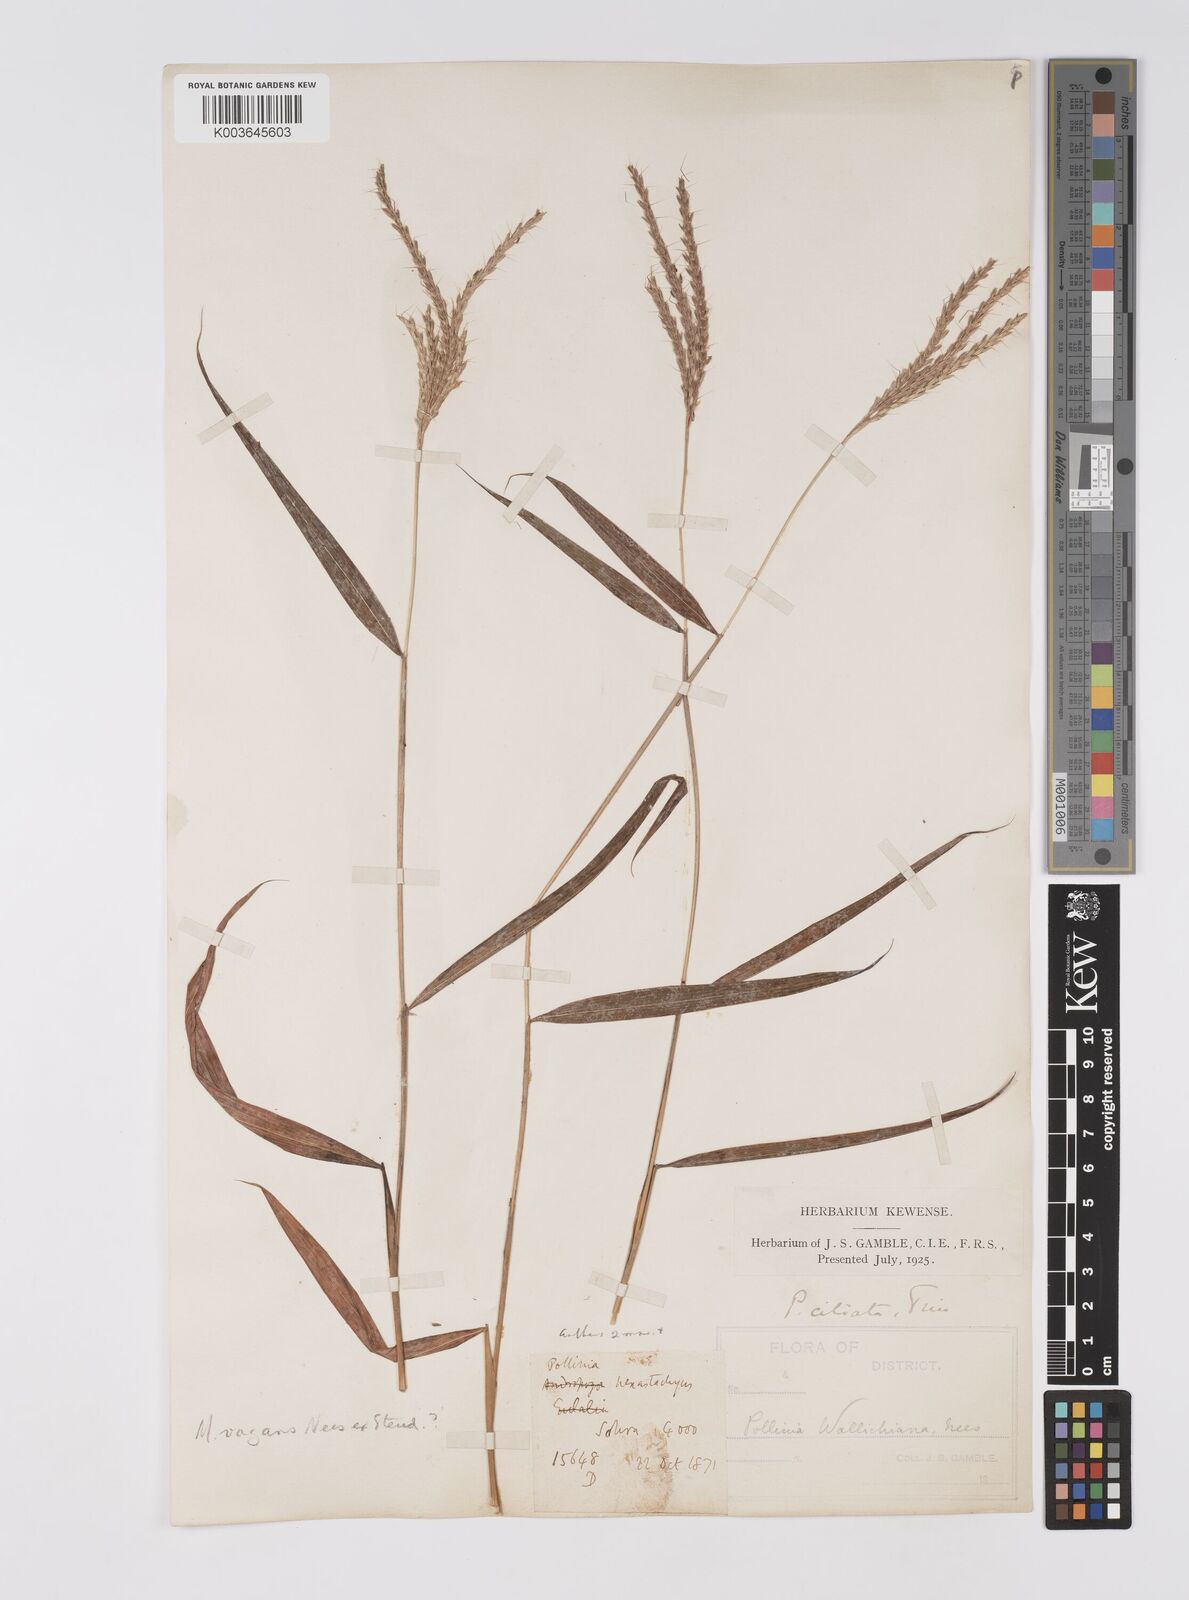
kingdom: Plantae
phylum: Tracheophyta
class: Liliopsida
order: Poales
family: Poaceae
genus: Microstegium
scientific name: Microstegium fasciculatum
